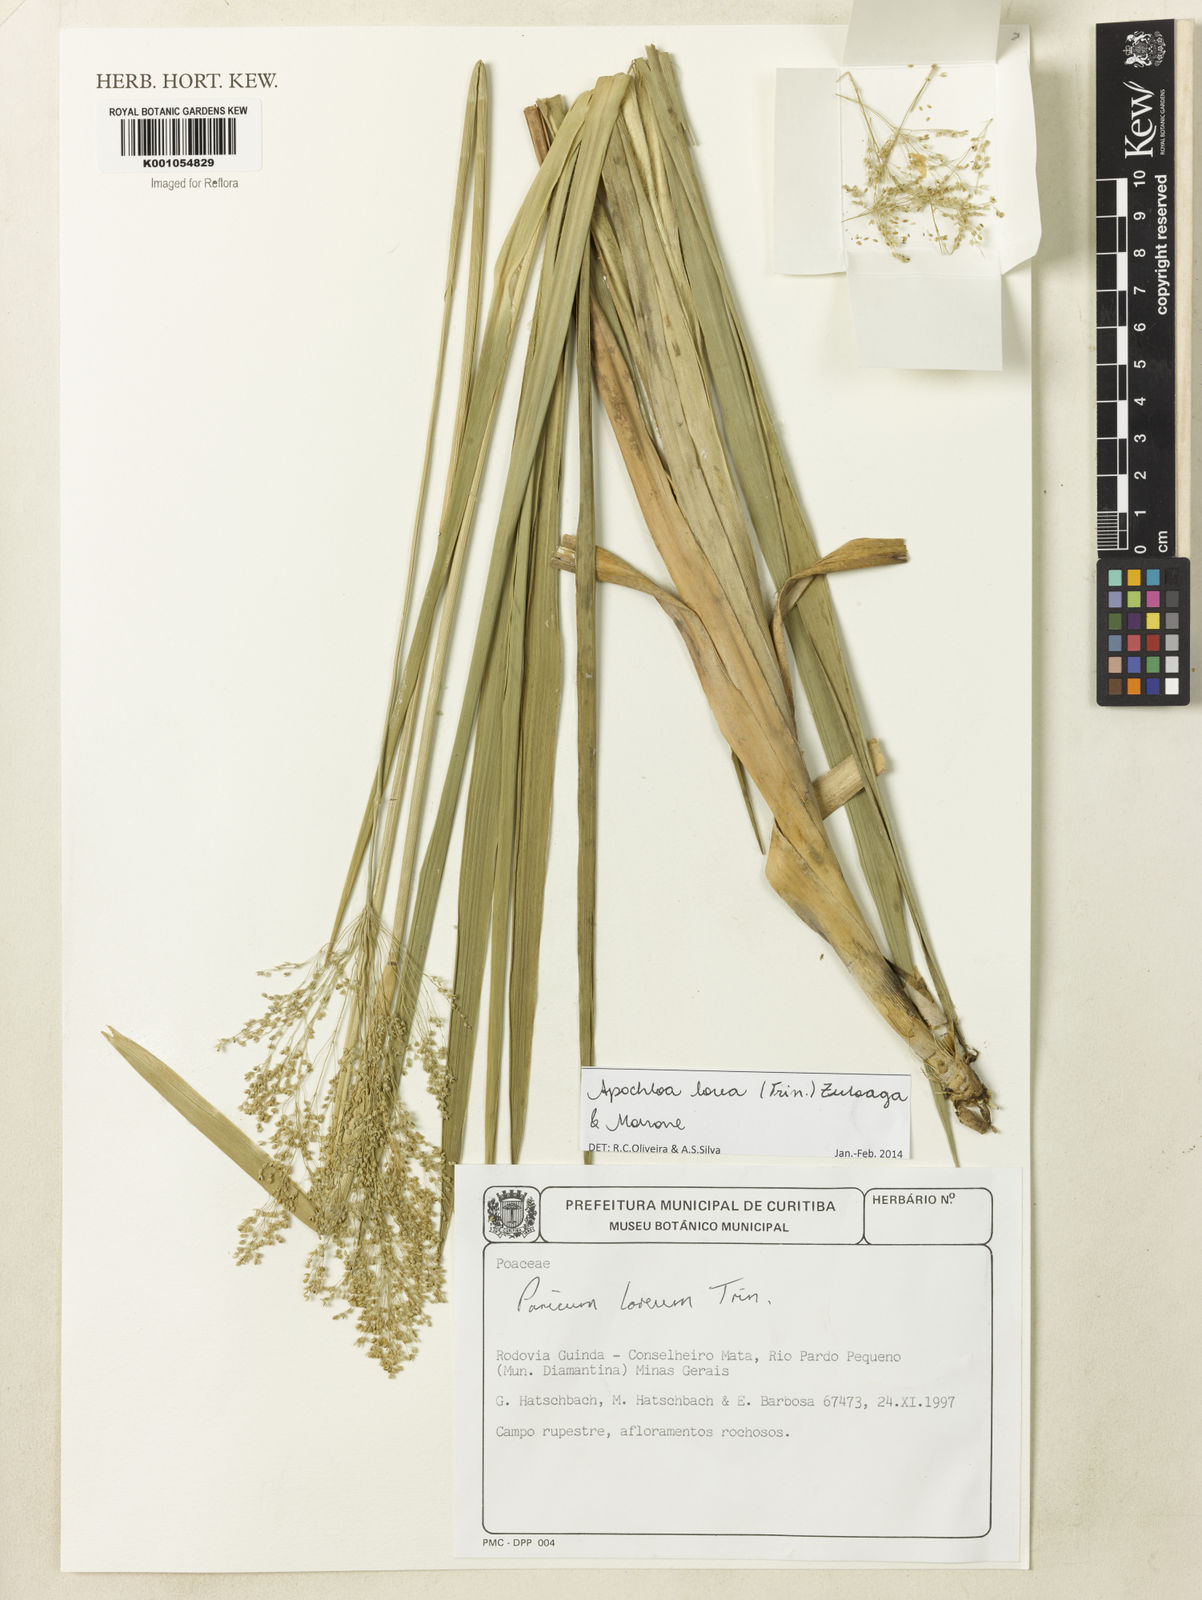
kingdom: Plantae
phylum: Tracheophyta
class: Liliopsida
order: Poales
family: Poaceae
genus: Apochloa
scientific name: Apochloa lorea
